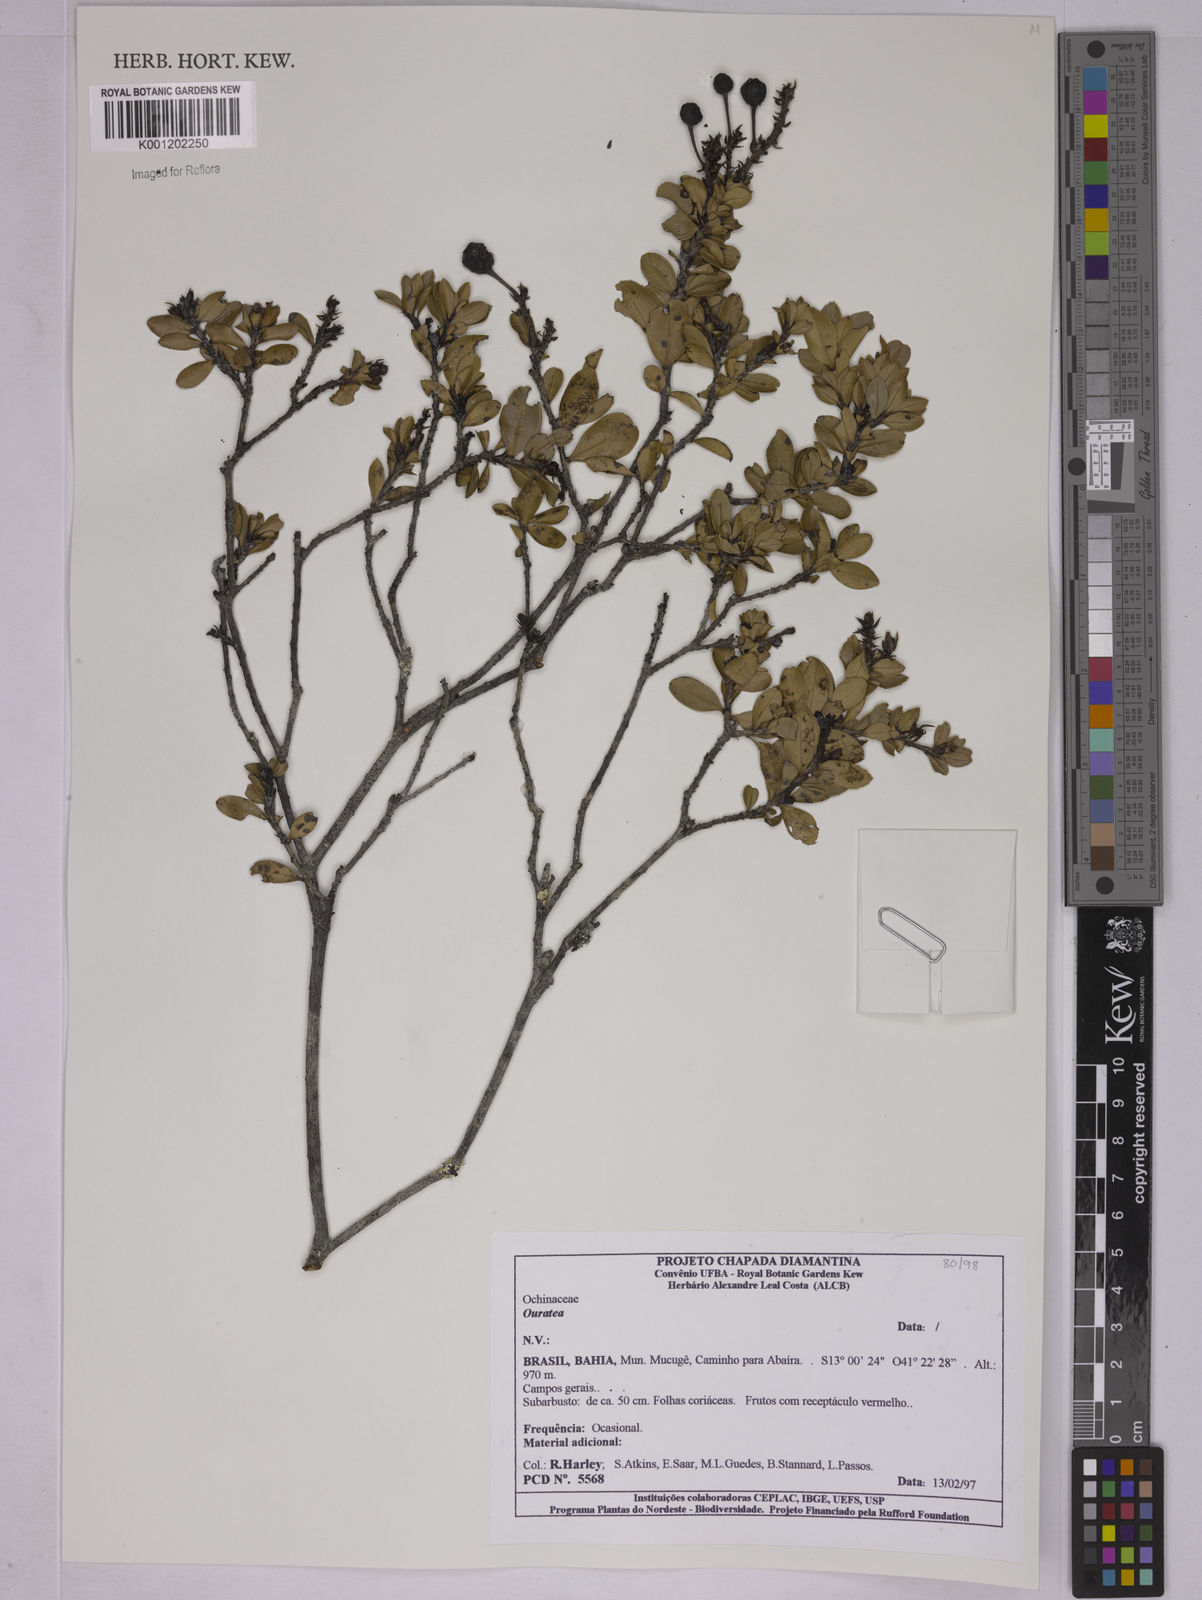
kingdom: Plantae
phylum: Tracheophyta
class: Magnoliopsida
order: Malpighiales
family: Ochnaceae
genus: Ouratea
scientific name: Ouratea
